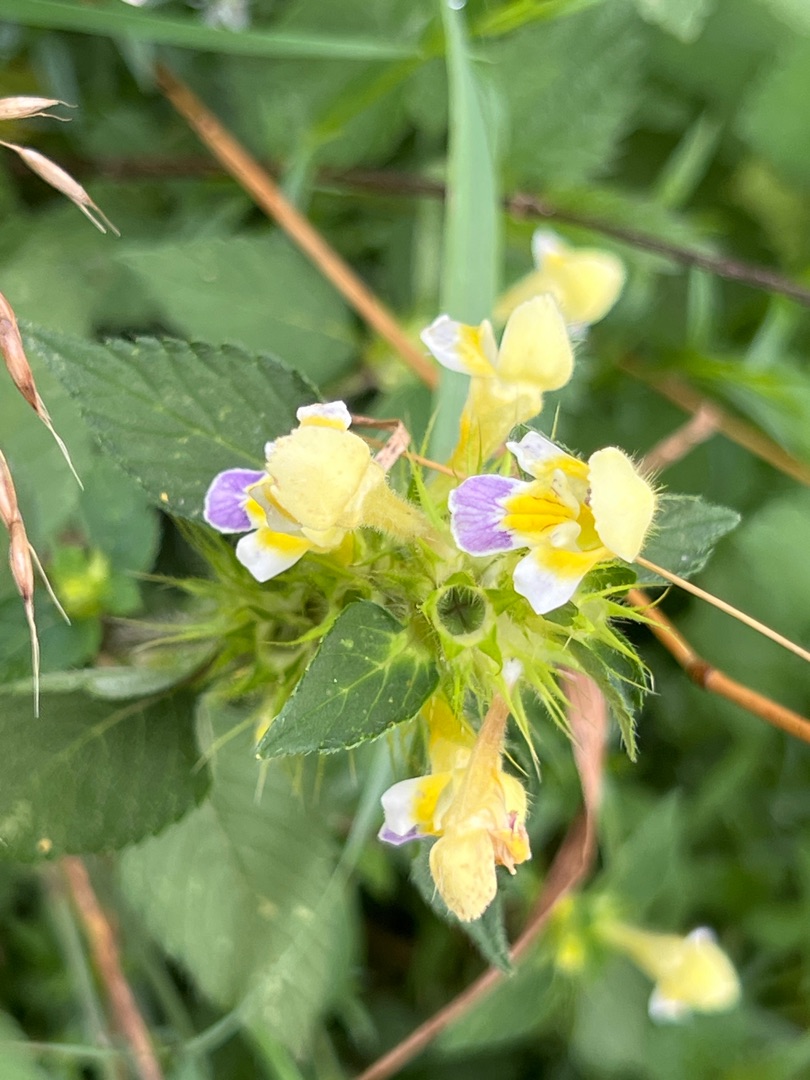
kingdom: Plantae
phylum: Tracheophyta
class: Magnoliopsida
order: Lamiales
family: Lamiaceae
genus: Galeopsis
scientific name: Galeopsis speciosa
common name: Hamp-hanekro
